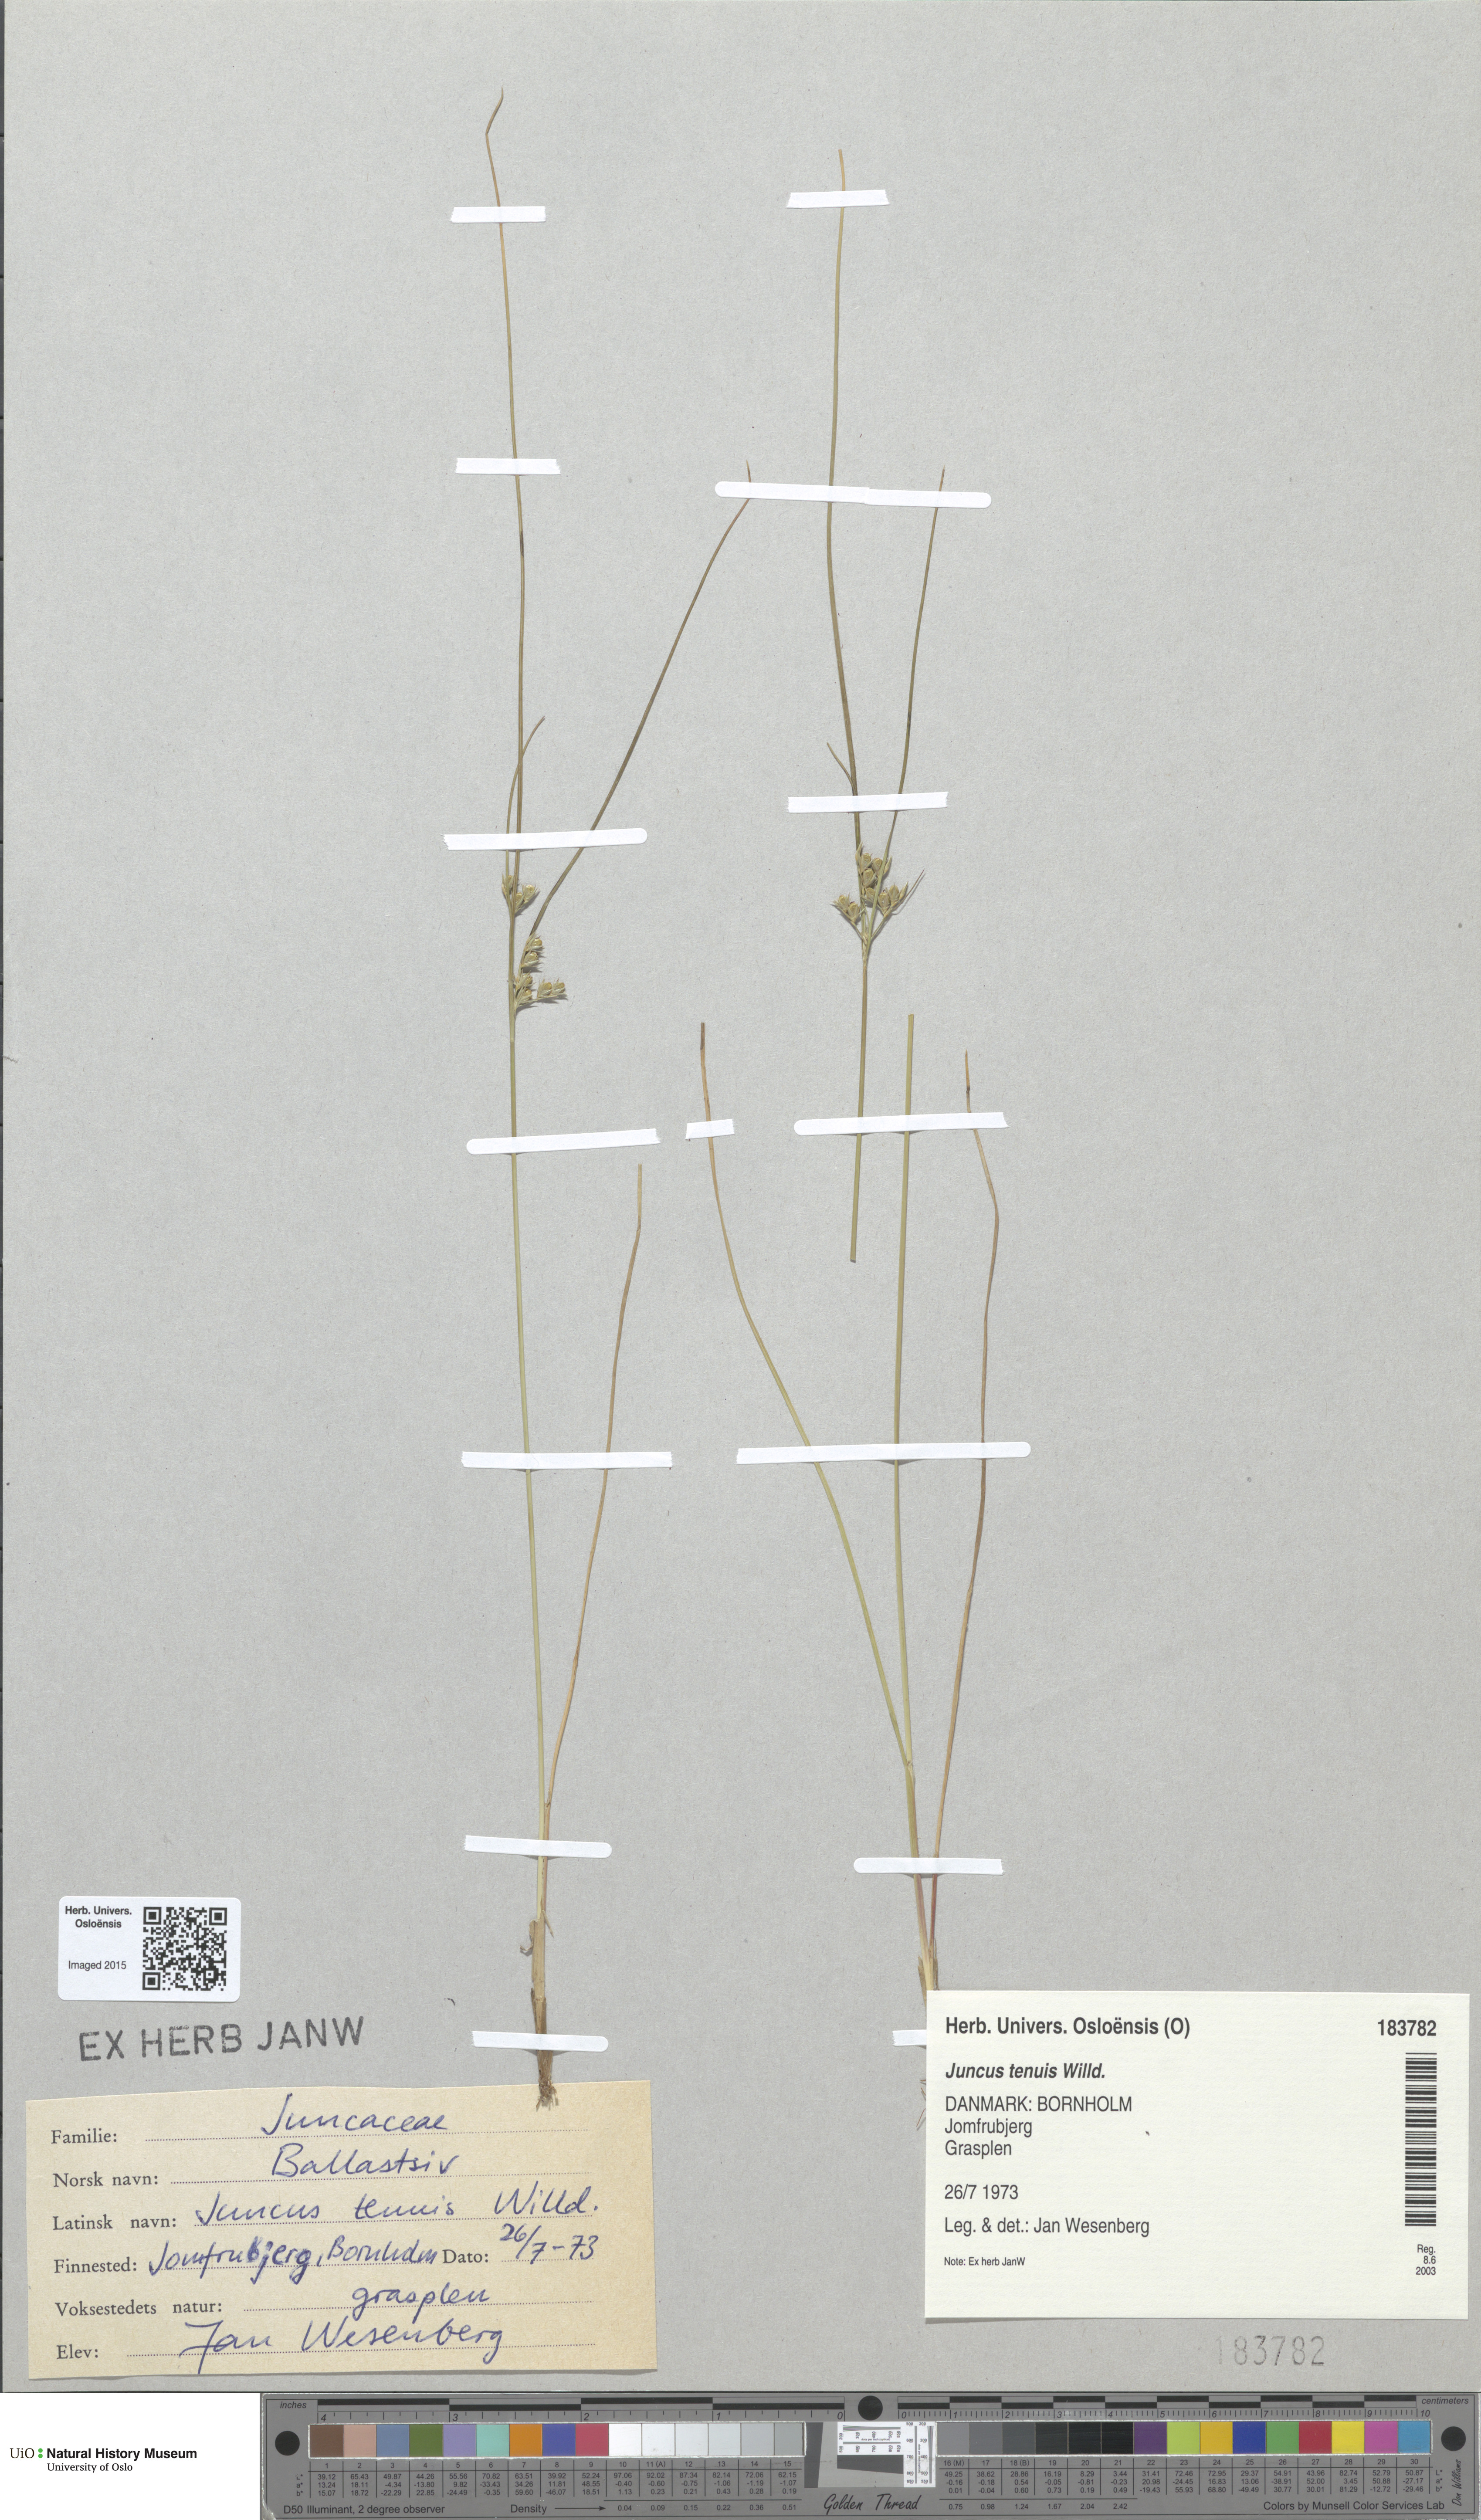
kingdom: Plantae
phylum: Tracheophyta
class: Liliopsida
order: Poales
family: Juncaceae
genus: Juncus
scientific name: Juncus tenuis
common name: Slender rush
